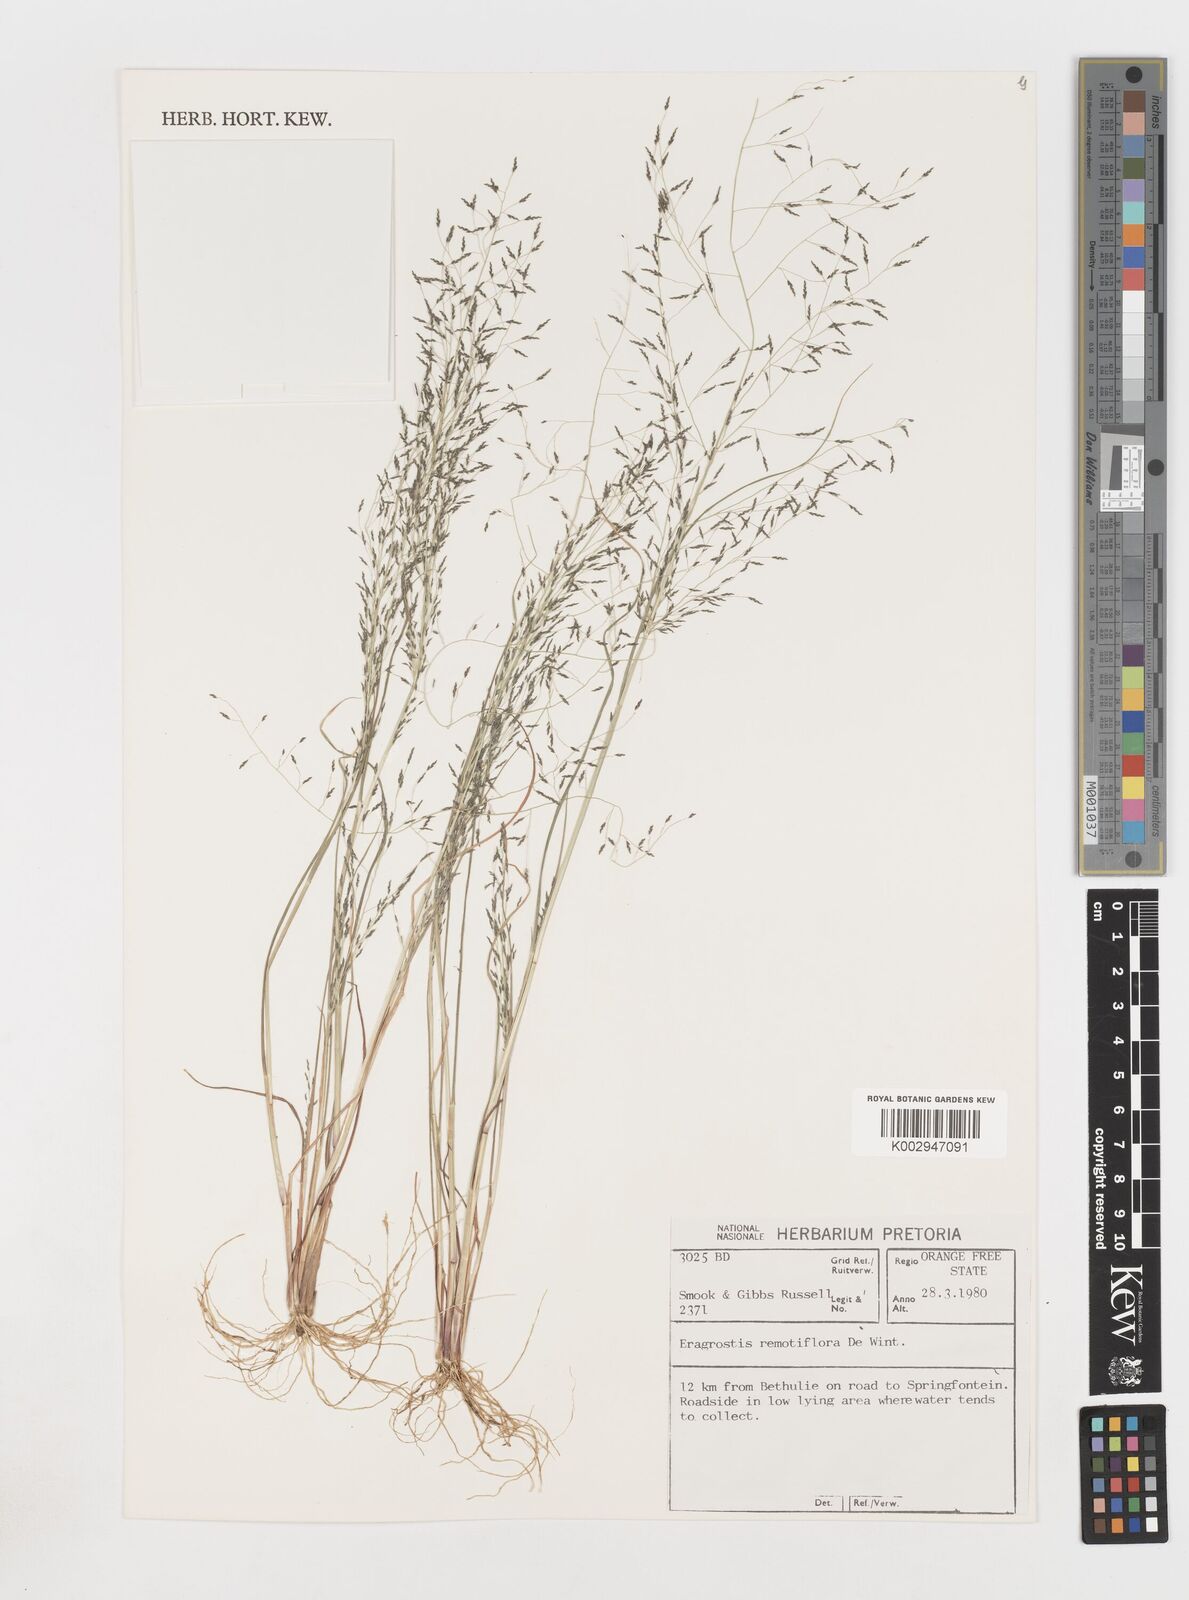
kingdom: Plantae
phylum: Tracheophyta
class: Liliopsida
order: Poales
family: Poaceae
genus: Eragrostis
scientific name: Eragrostis remotiflora
